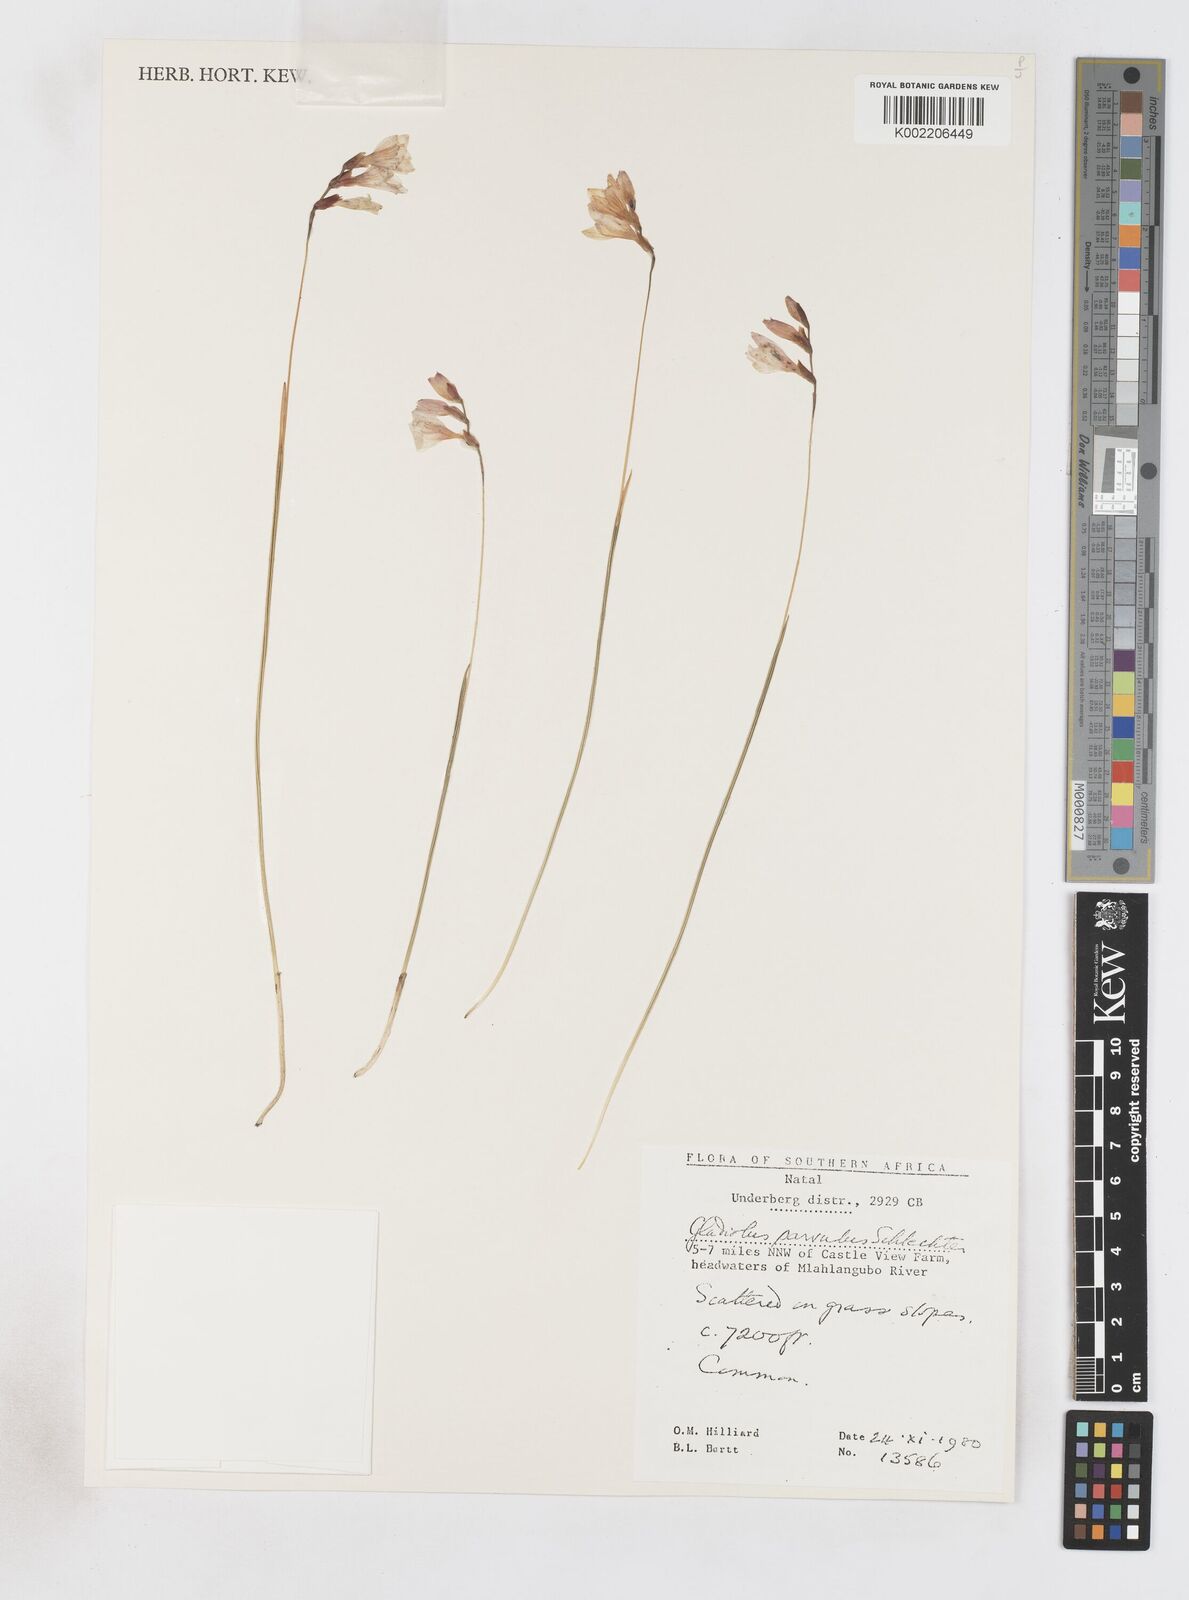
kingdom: Plantae
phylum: Tracheophyta
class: Liliopsida
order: Asparagales
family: Iridaceae
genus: Gladiolus
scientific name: Gladiolus parvulus
